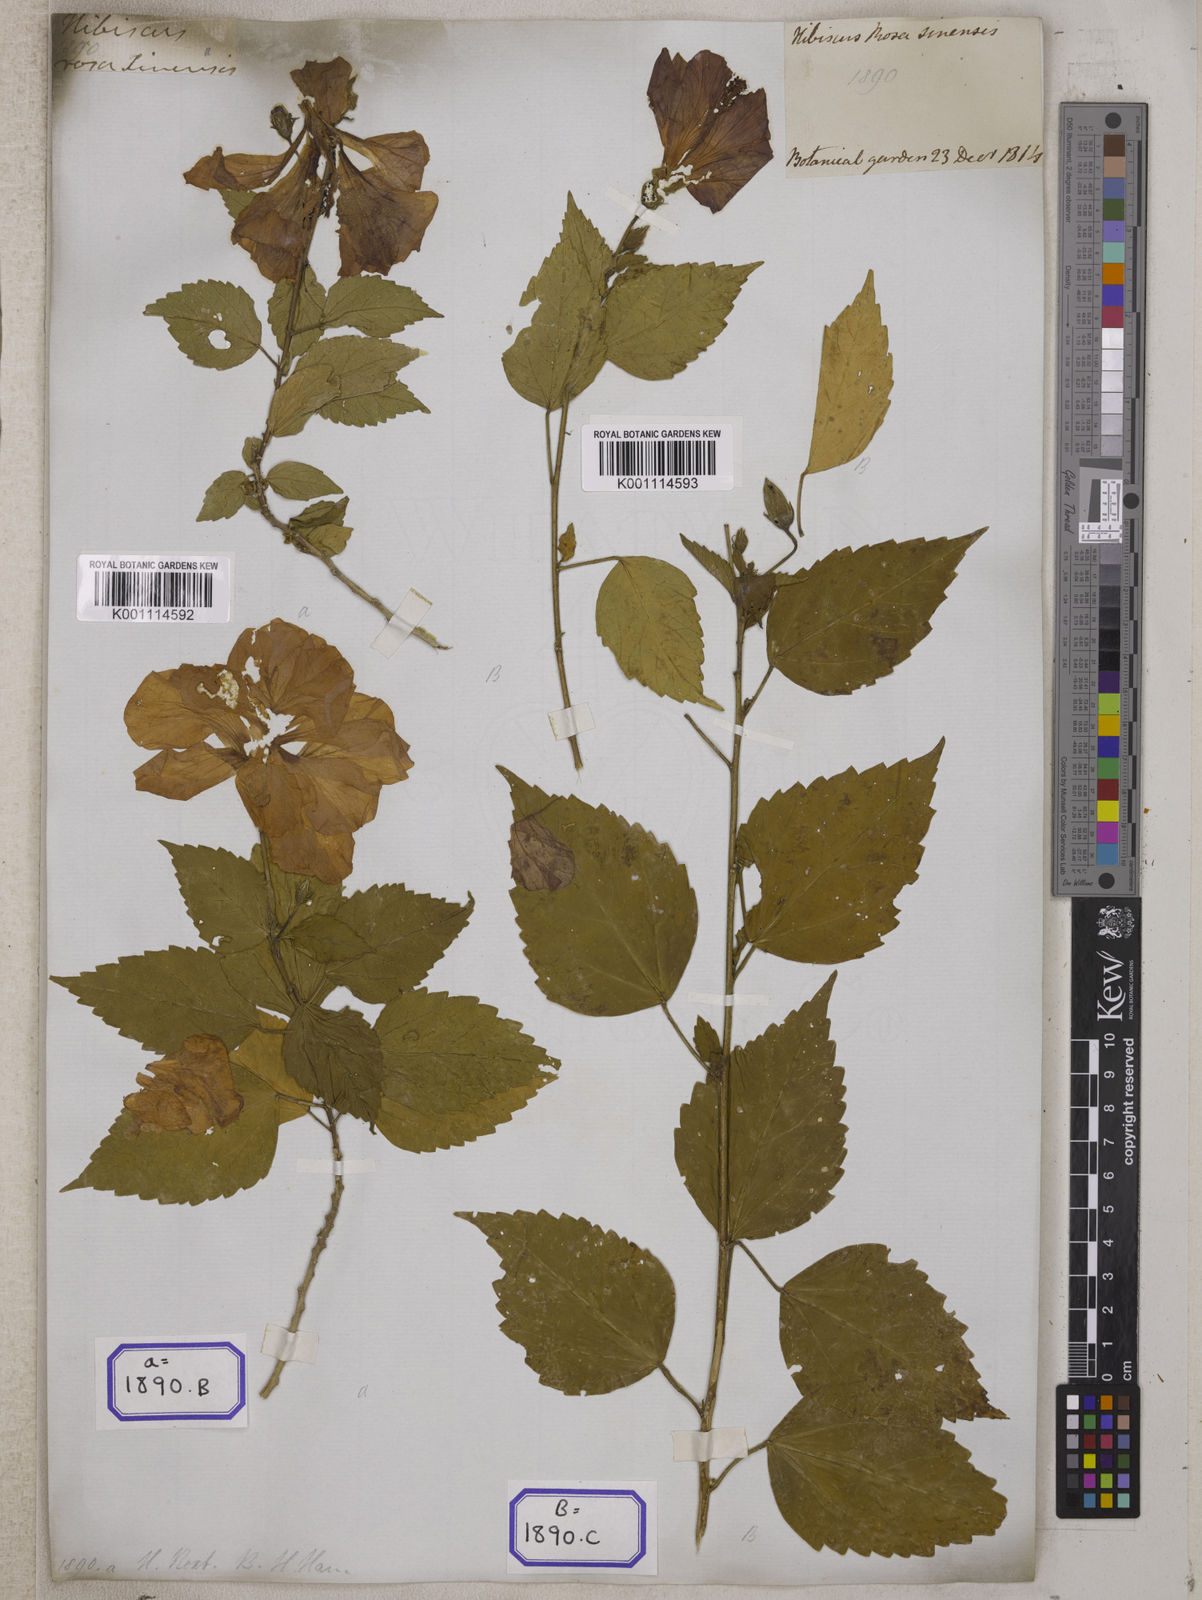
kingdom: Plantae
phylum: Tracheophyta
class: Magnoliopsida
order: Malvales
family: Malvaceae
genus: Hibiscus
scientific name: Hibiscus rosa-sinensis
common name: Hibiscus
